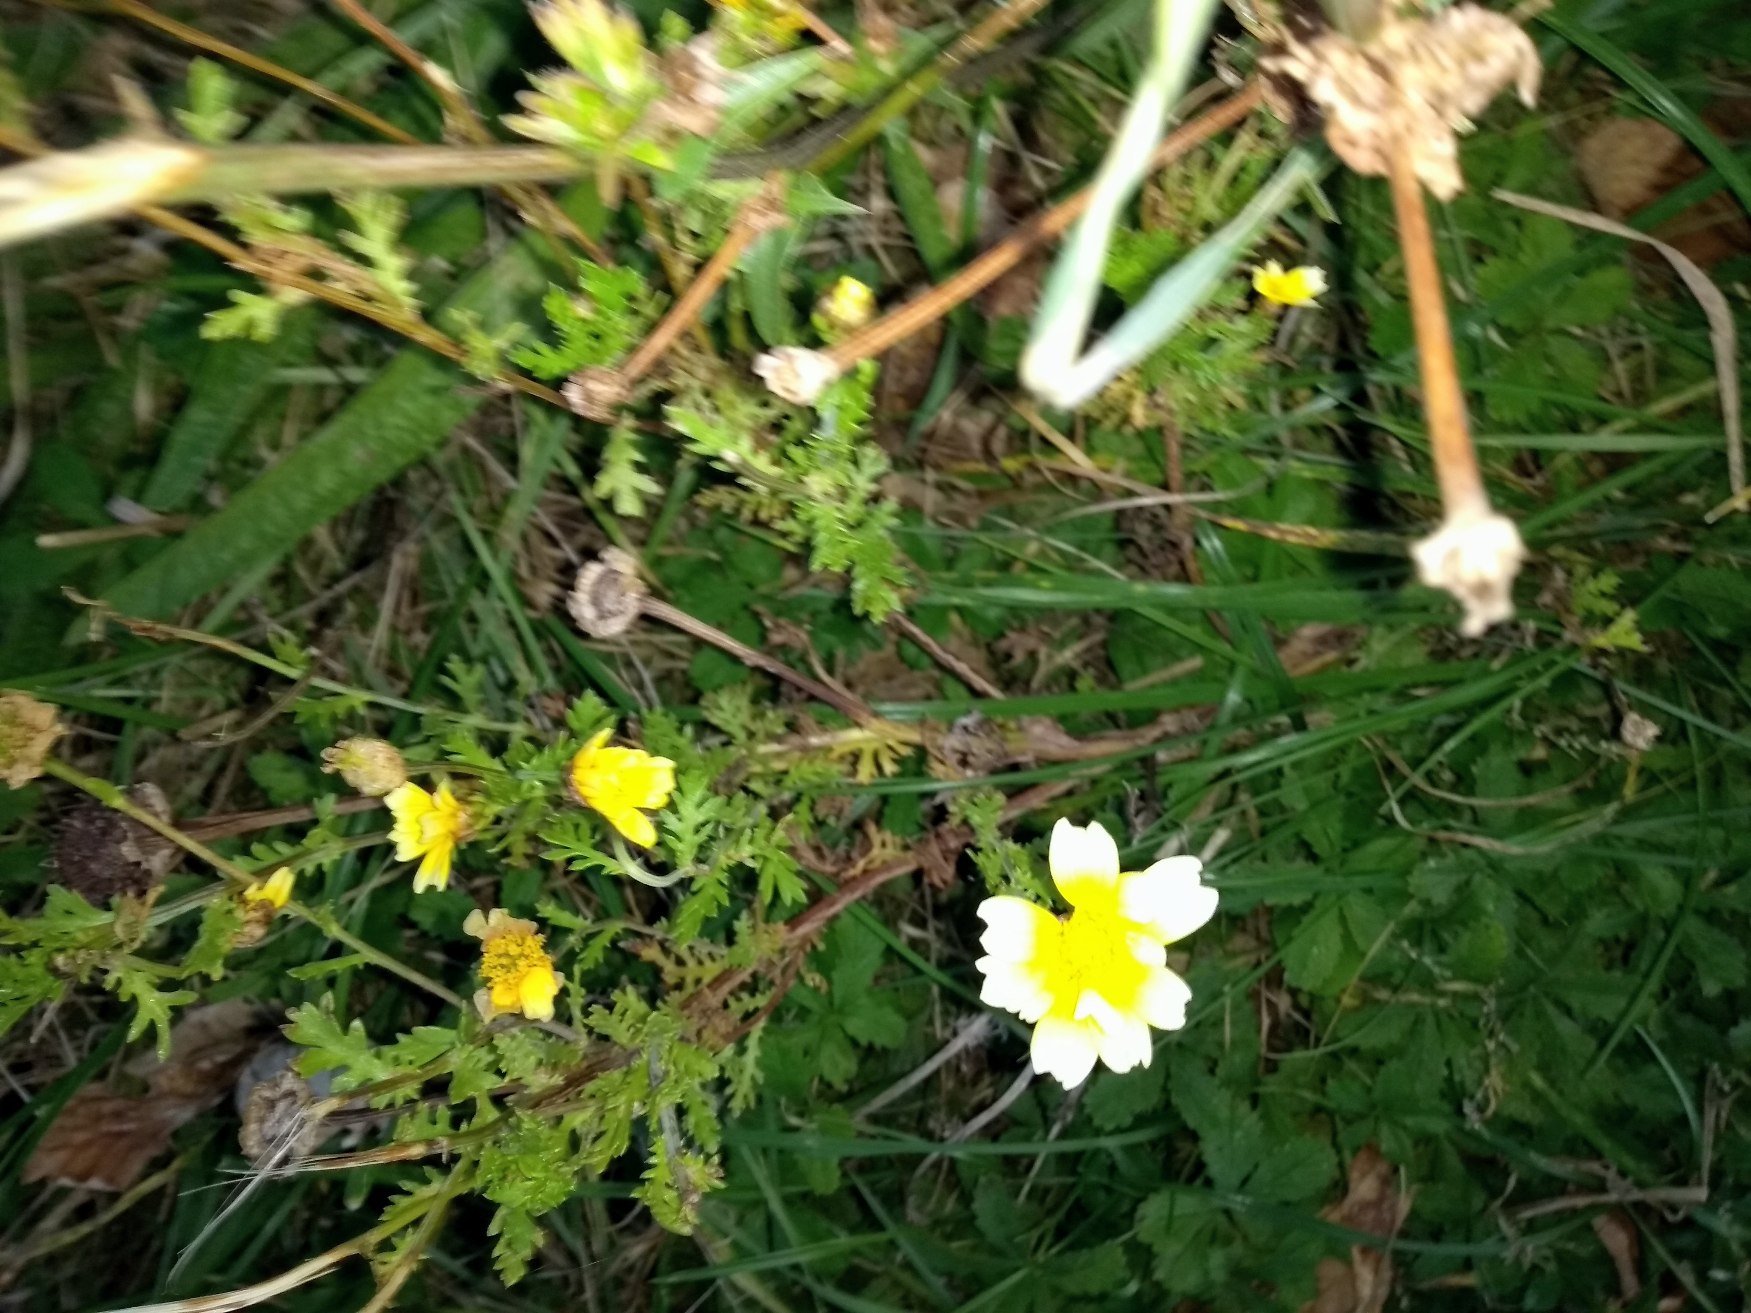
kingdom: Plantae
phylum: Tracheophyta
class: Magnoliopsida
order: Asterales
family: Asteraceae
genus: Glebionis
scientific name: Glebionis carinata
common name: Flerfarvet okseøje
